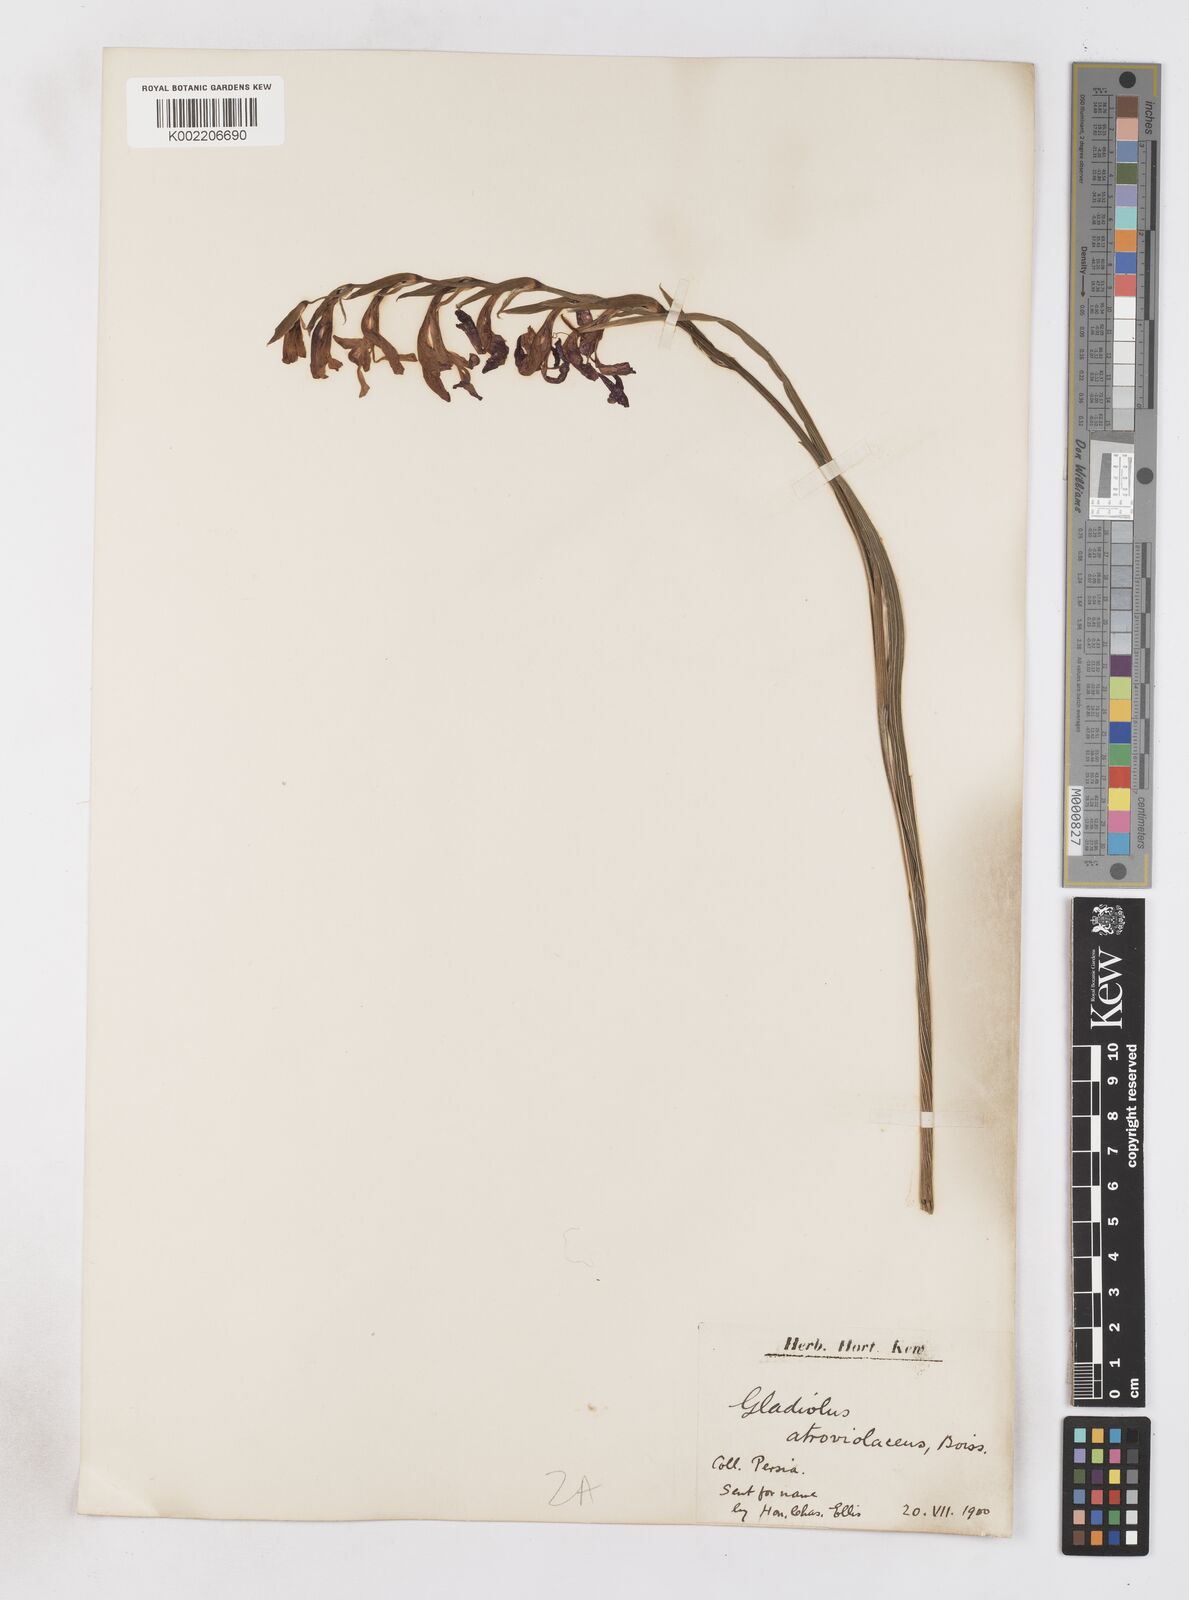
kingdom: Plantae
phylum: Tracheophyta
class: Liliopsida
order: Asparagales
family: Iridaceae
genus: Gladiolus
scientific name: Gladiolus atroviolaceus
